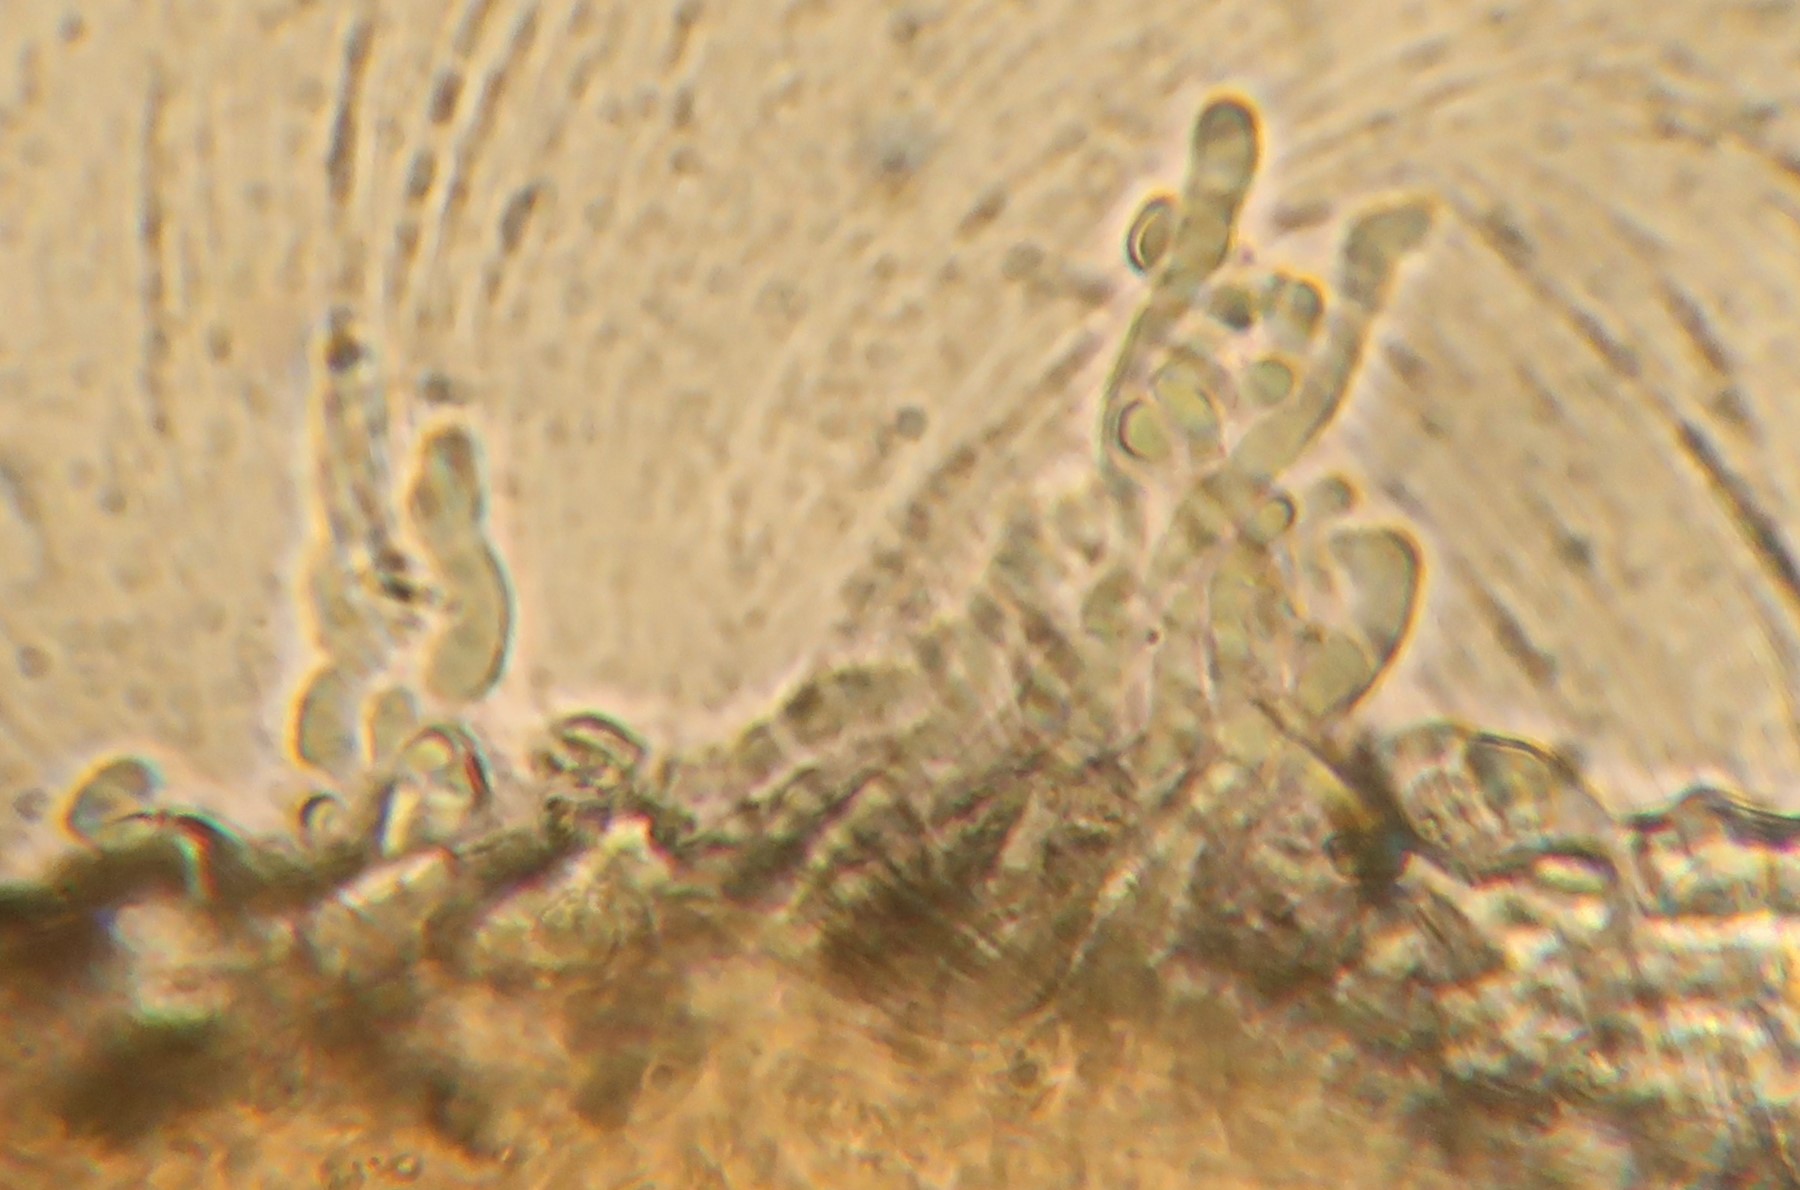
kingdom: Fungi
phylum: Basidiomycota
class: Agaricomycetes
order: Agaricales
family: Entolomataceae
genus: Clitopilus
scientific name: Clitopilus hobsonii
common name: Miller's oysterling
